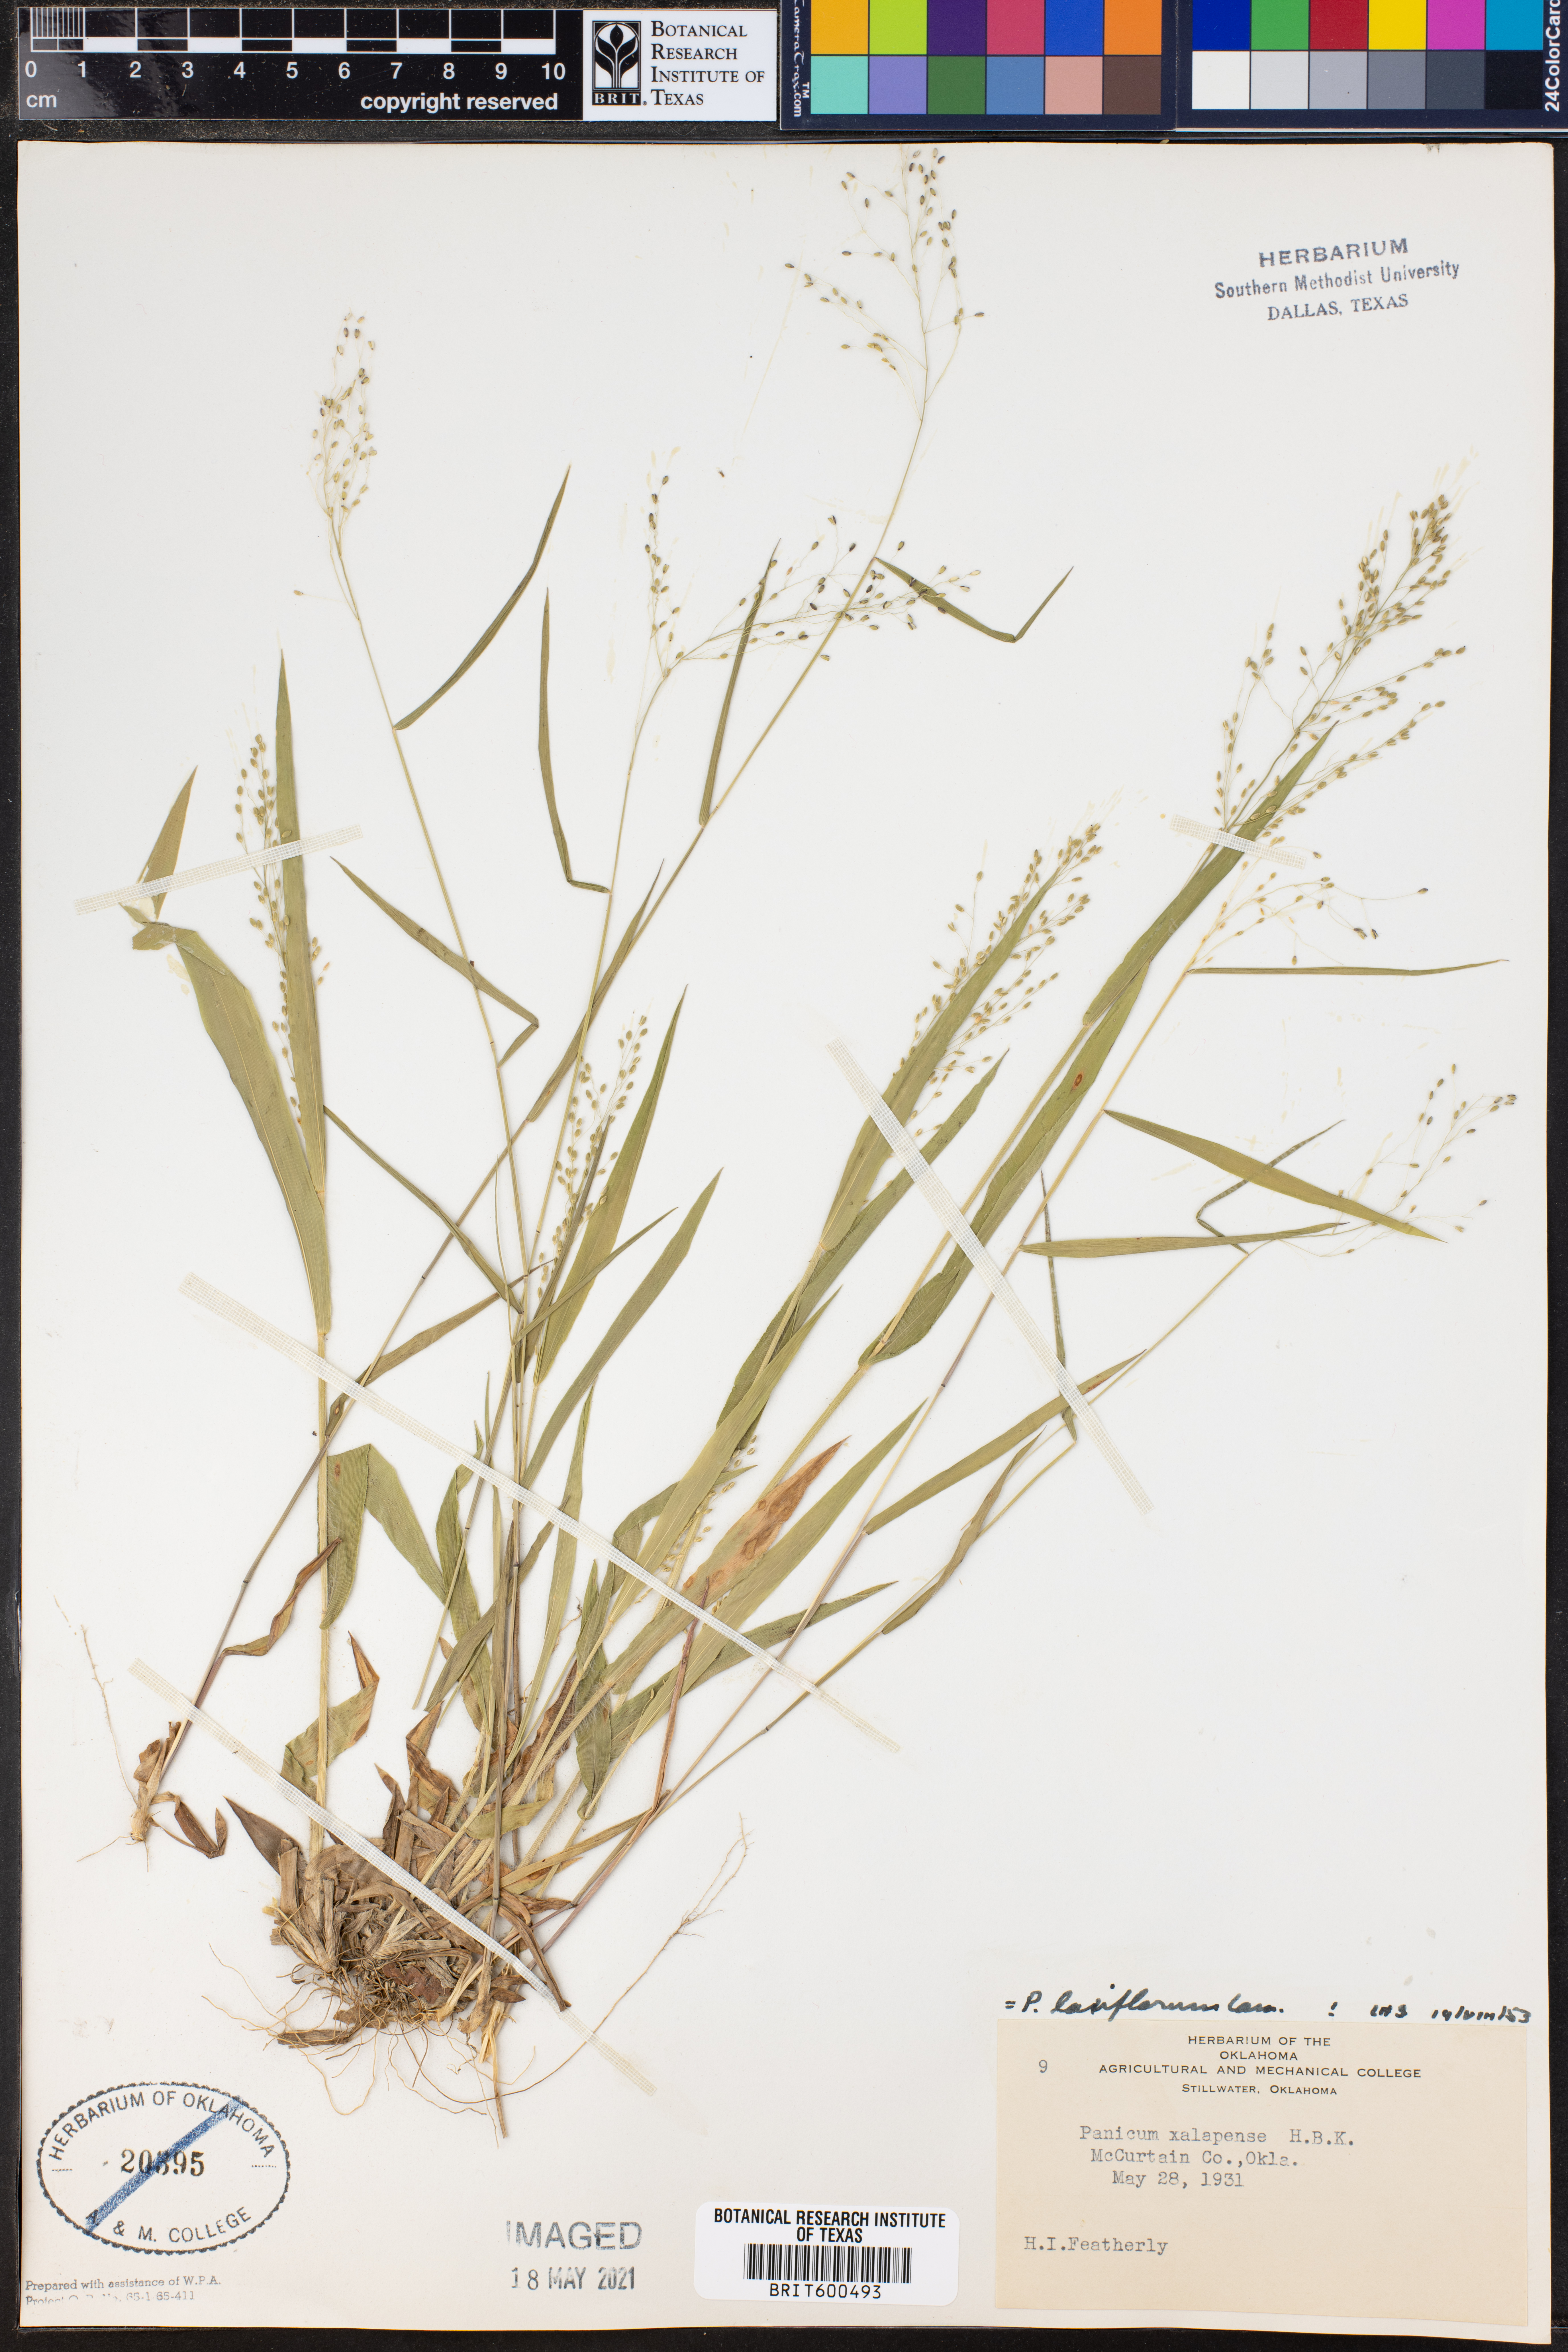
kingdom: Plantae
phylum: Tracheophyta
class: Liliopsida
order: Poales
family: Poaceae
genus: Dichanthelium
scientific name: Dichanthelium laxiflorum
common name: Soft-tuft panic grass
